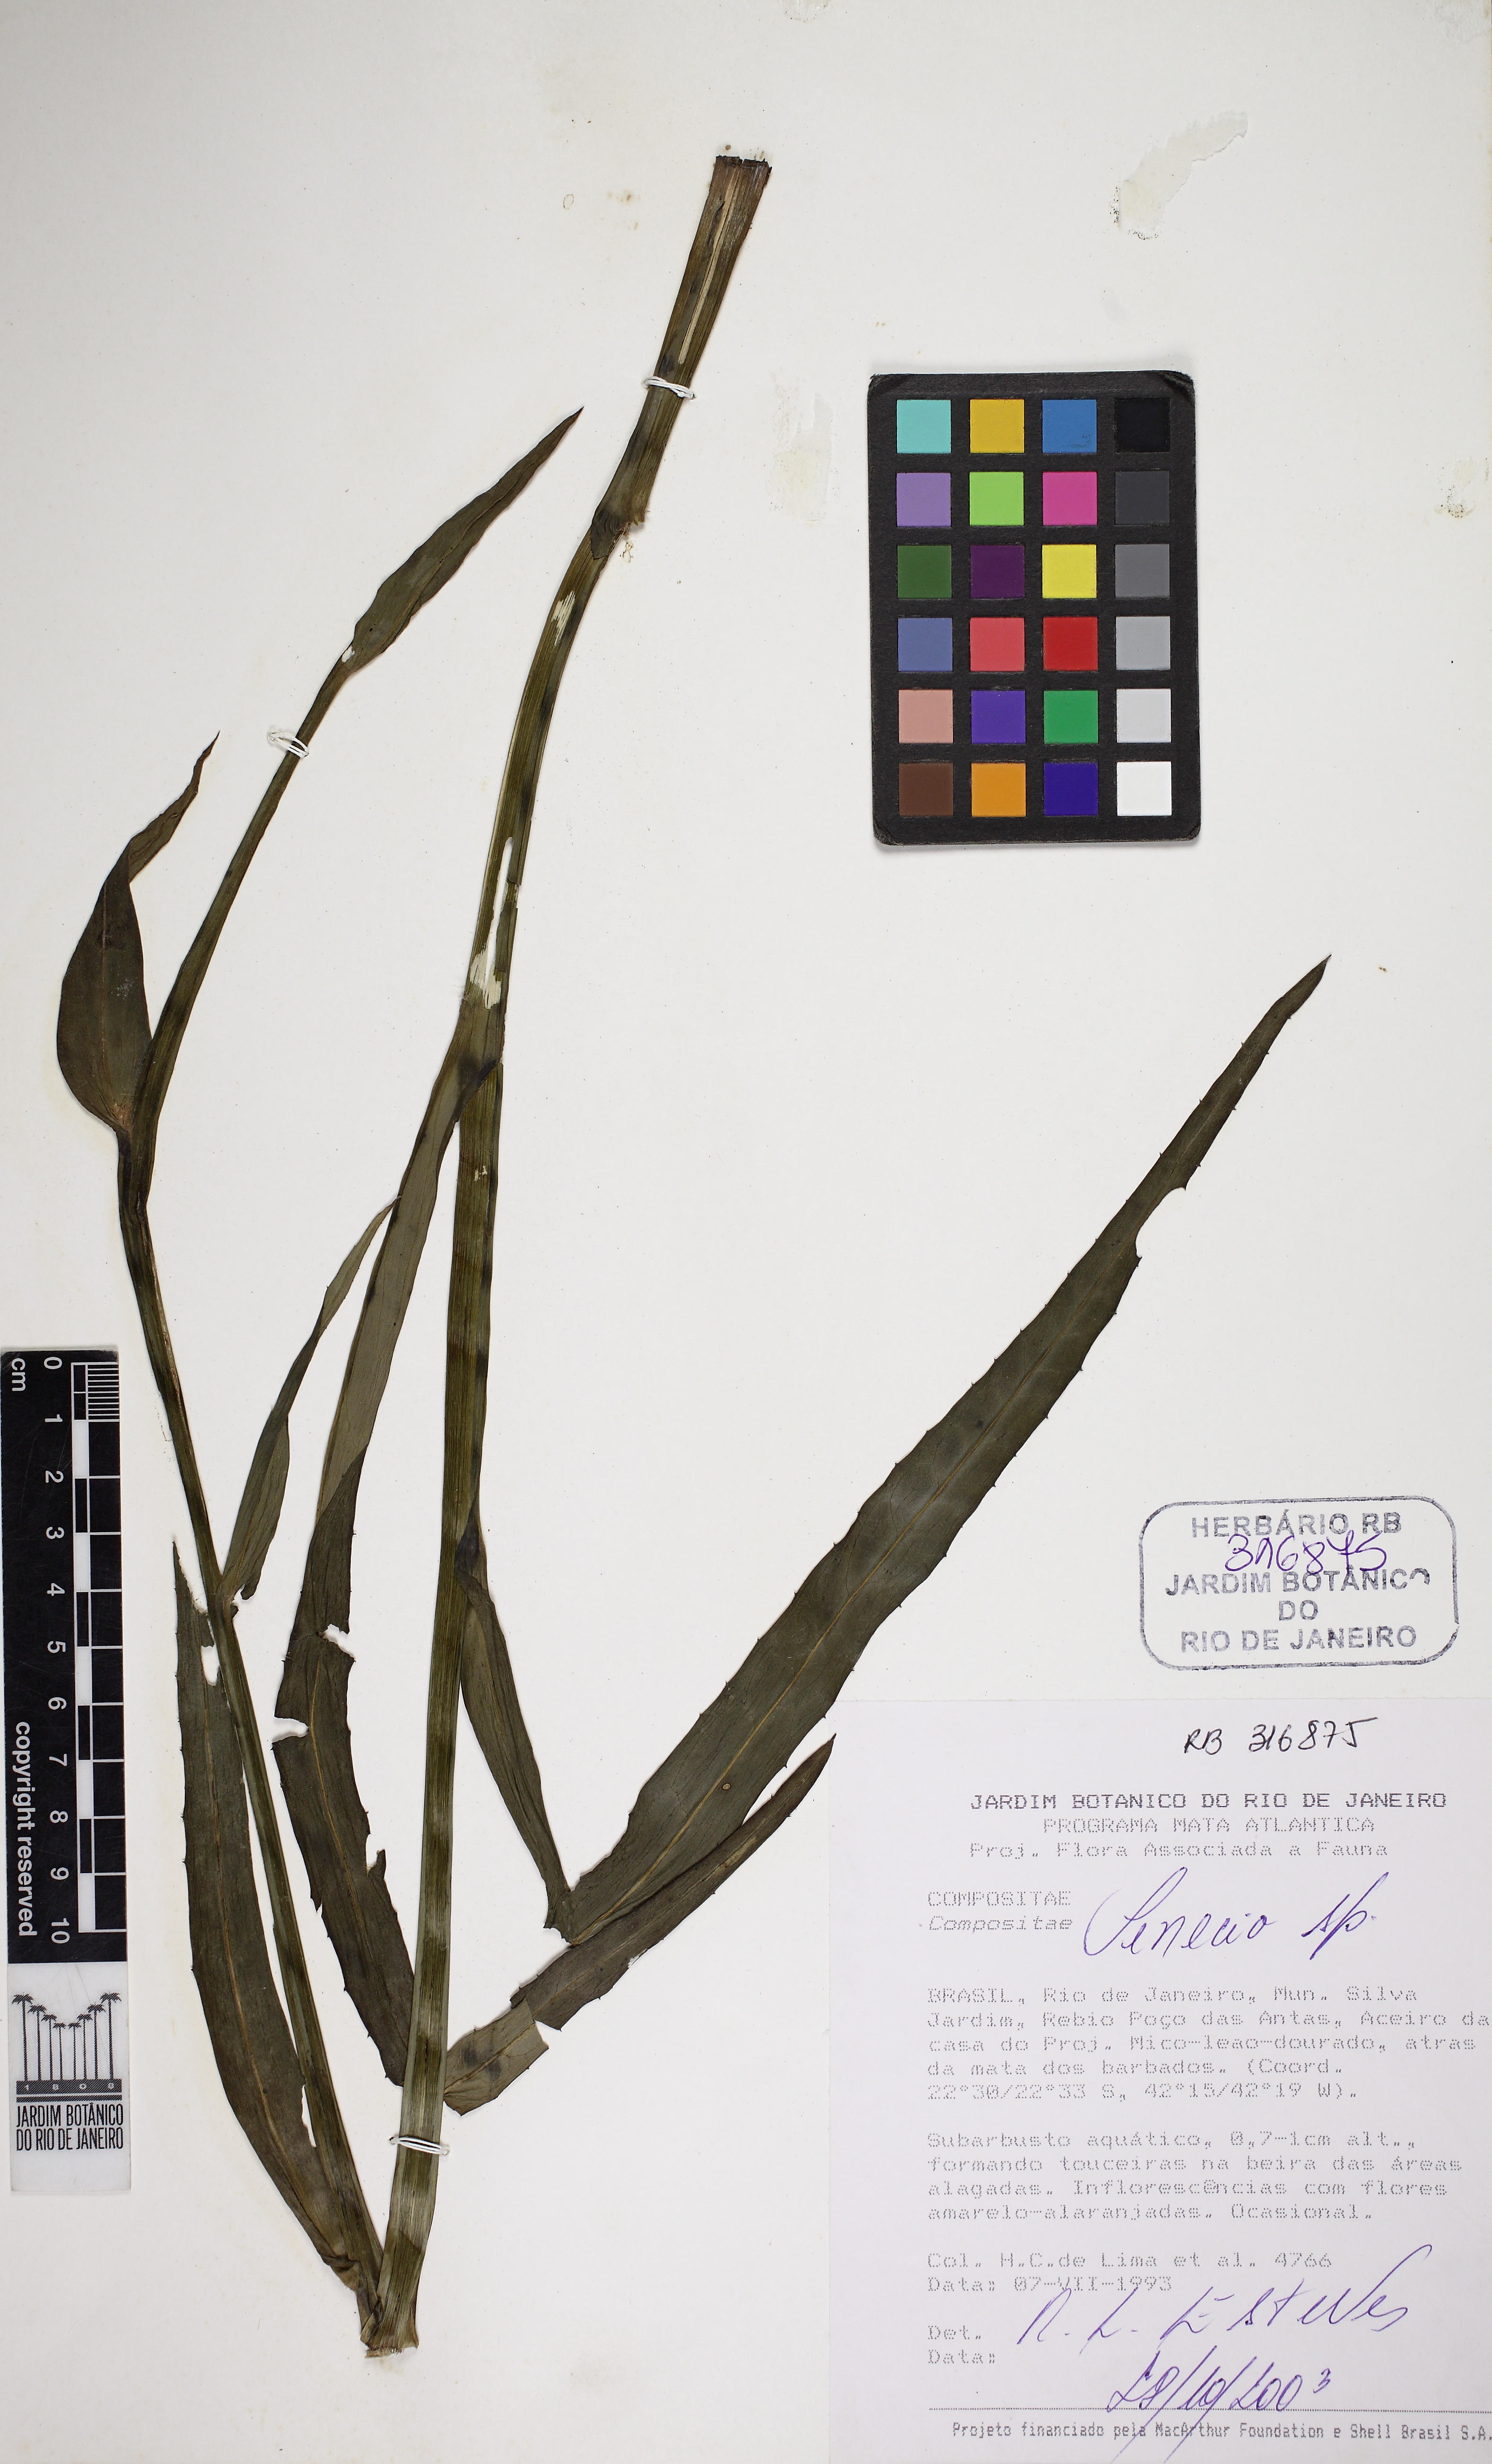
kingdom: Plantae
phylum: Tracheophyta
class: Magnoliopsida
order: Asterales
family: Asteraceae
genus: Erigeron
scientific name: Erigeron
